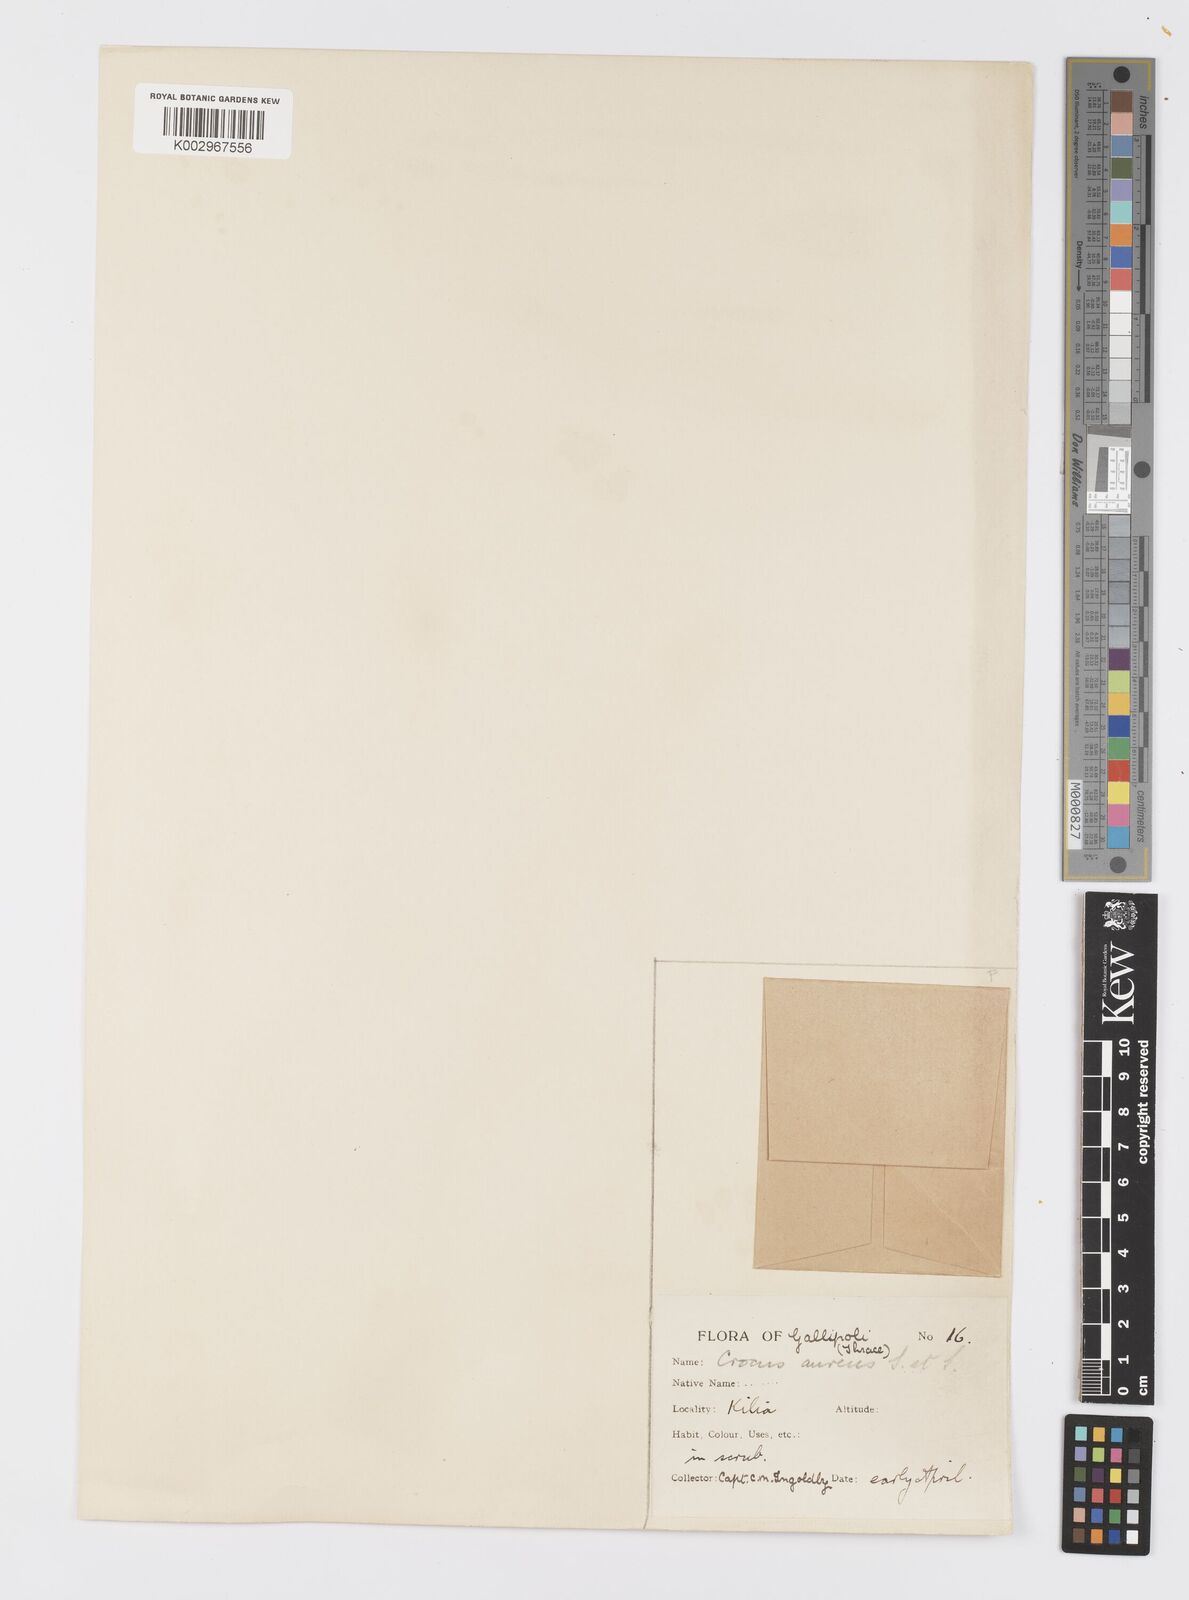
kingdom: Plantae
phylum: Tracheophyta
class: Liliopsida
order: Asparagales
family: Iridaceae
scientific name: Iridaceae
